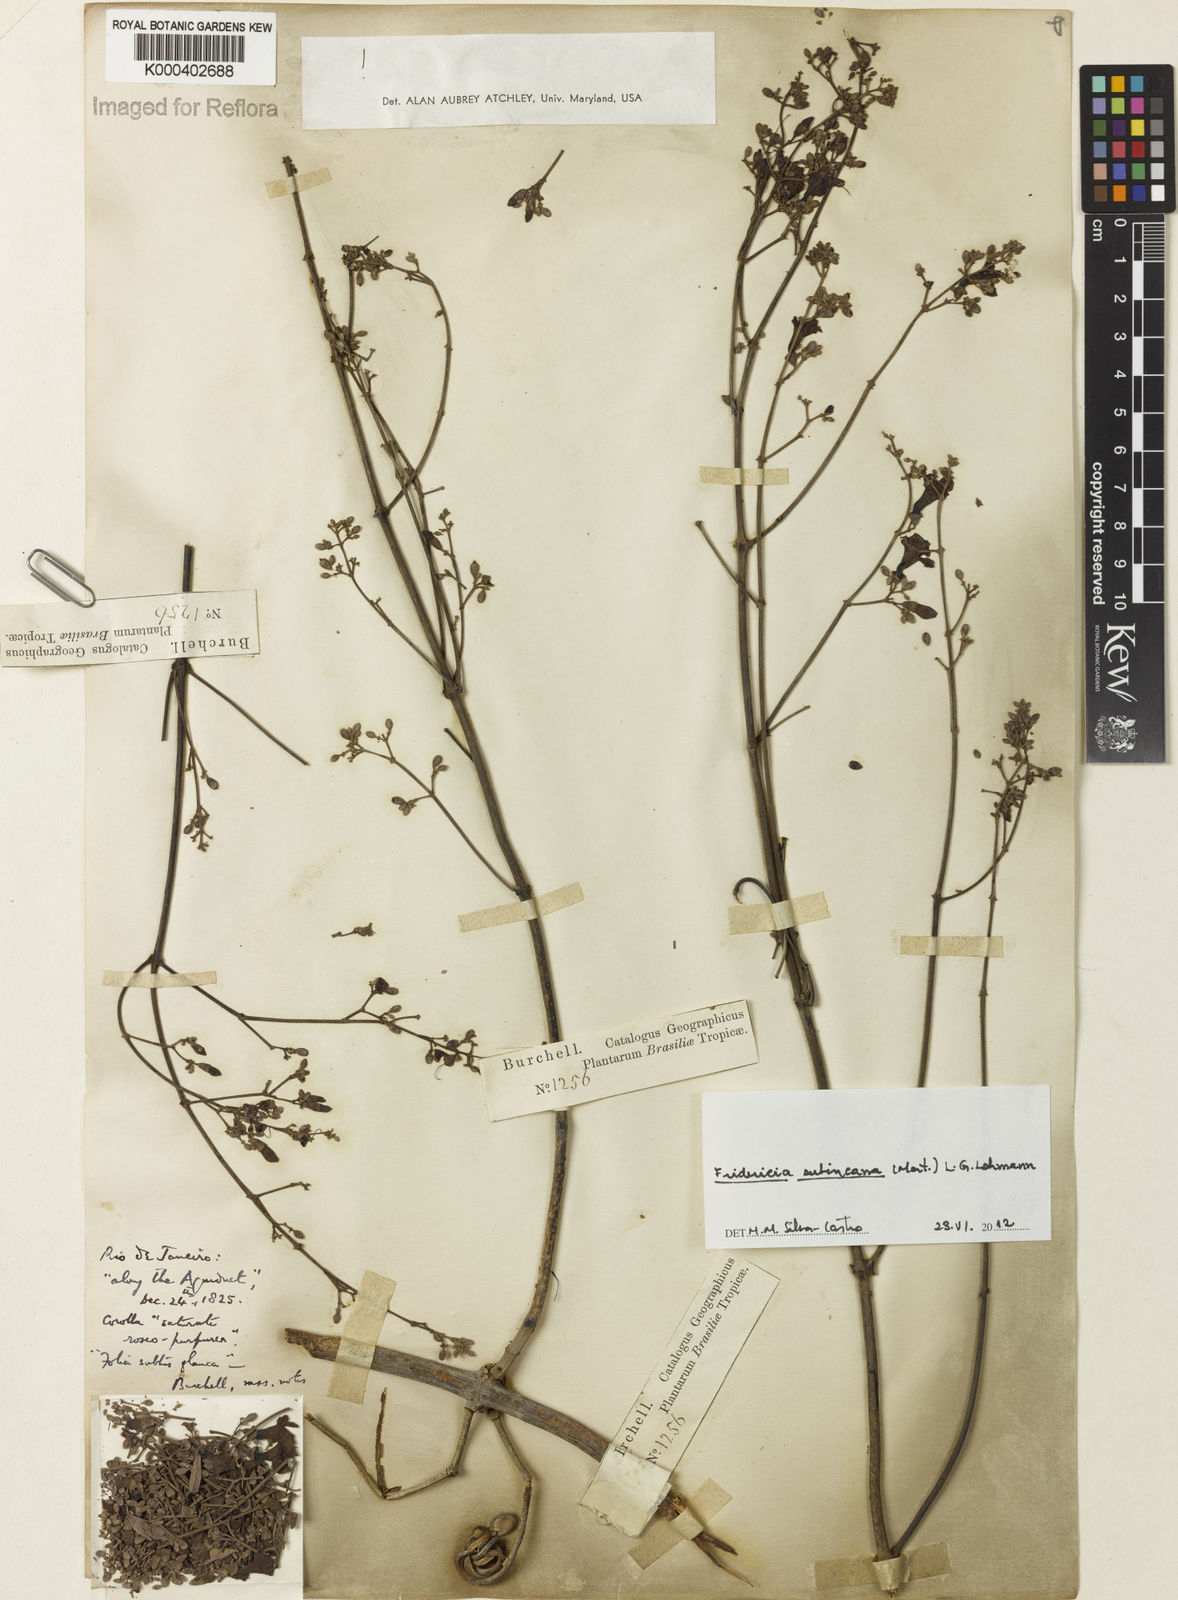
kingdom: Plantae
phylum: Tracheophyta
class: Magnoliopsida
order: Lamiales
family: Bignoniaceae
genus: Fridericia
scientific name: Fridericia subincana
